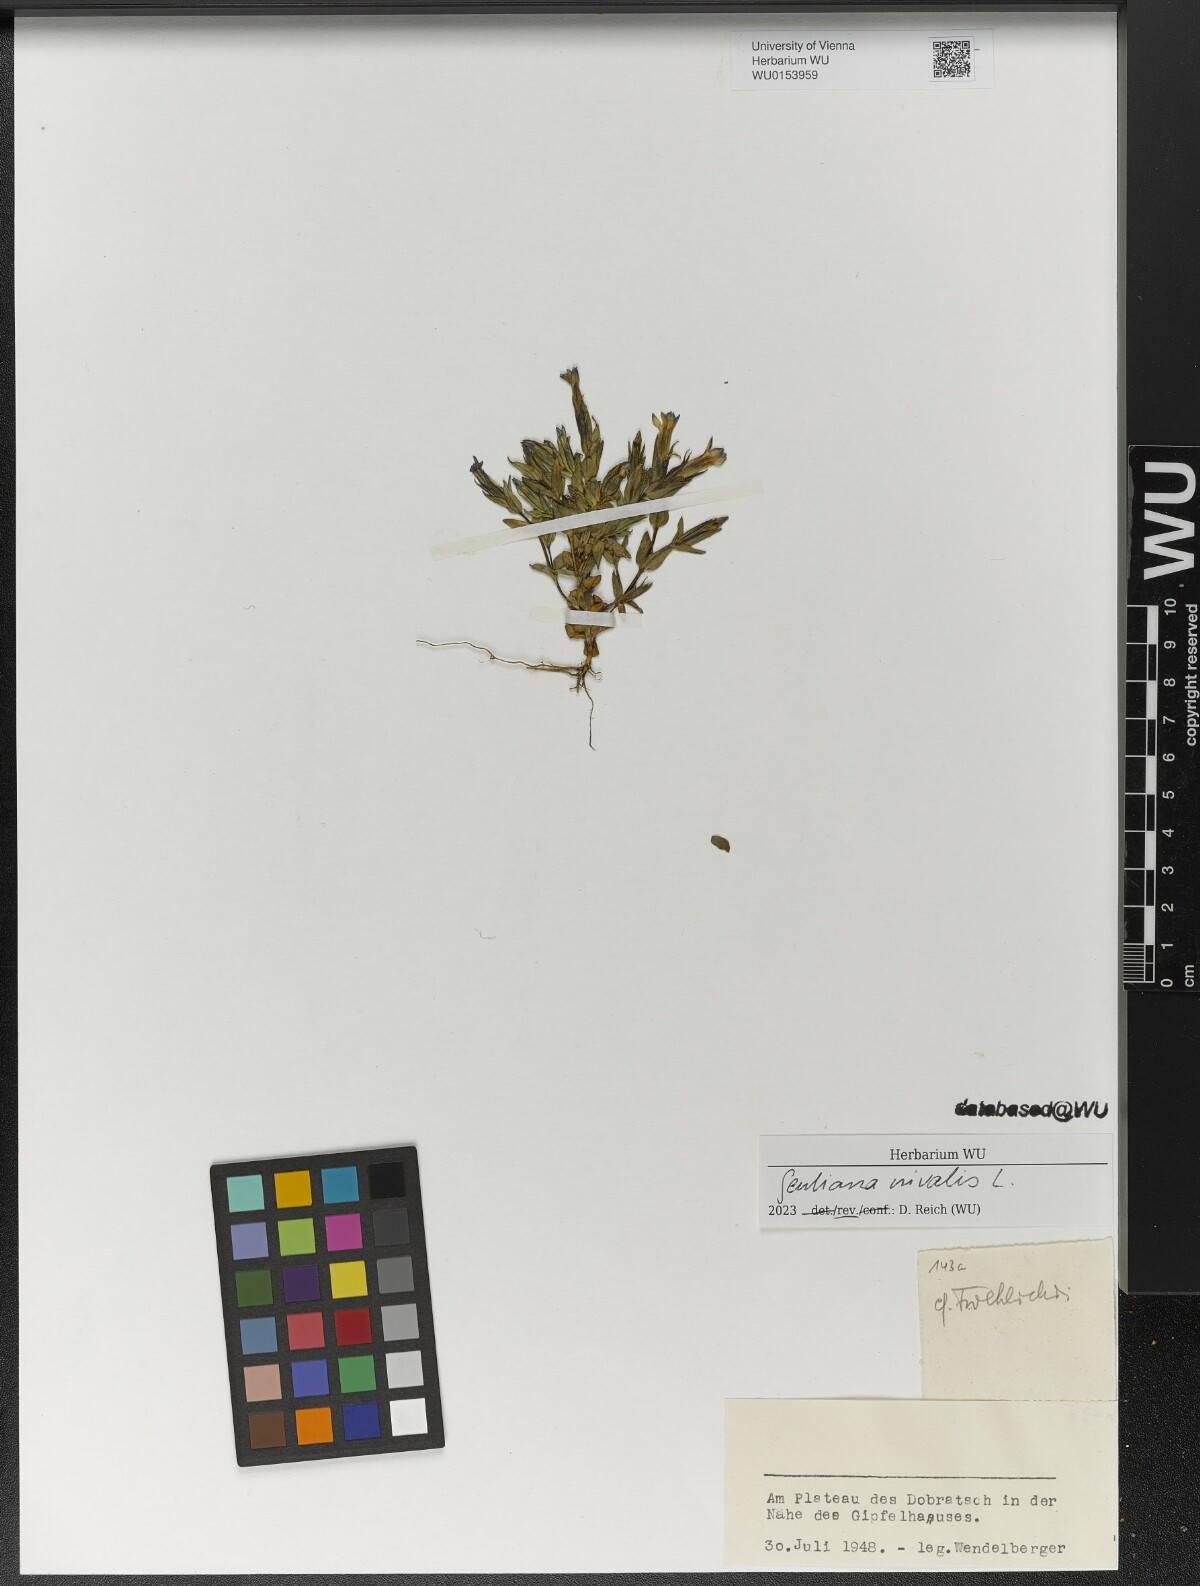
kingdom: Plantae
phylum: Tracheophyta
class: Magnoliopsida
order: Gentianales
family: Gentianaceae
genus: Gentiana
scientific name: Gentiana nivalis
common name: Alpine gentian
